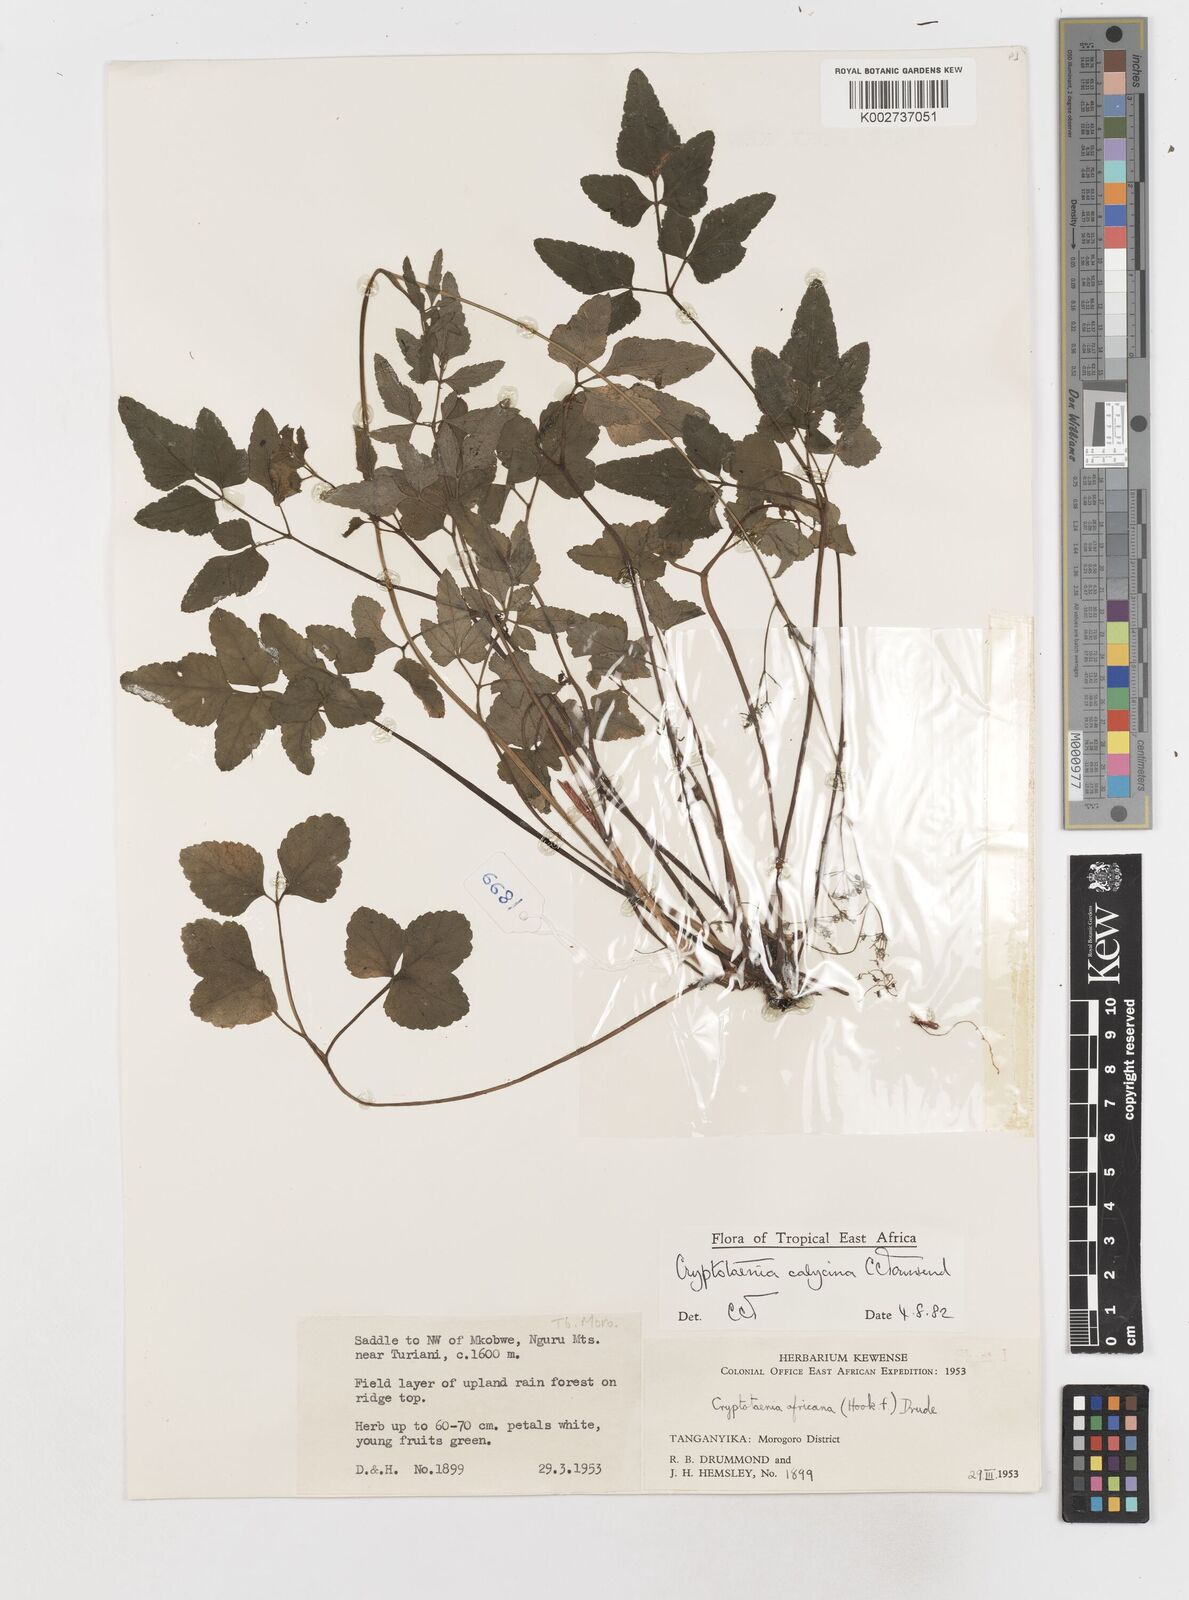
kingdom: Plantae
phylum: Tracheophyta
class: Magnoliopsida
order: Apiales
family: Apiaceae
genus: Cryptotaenia
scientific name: Cryptotaenia calycina
